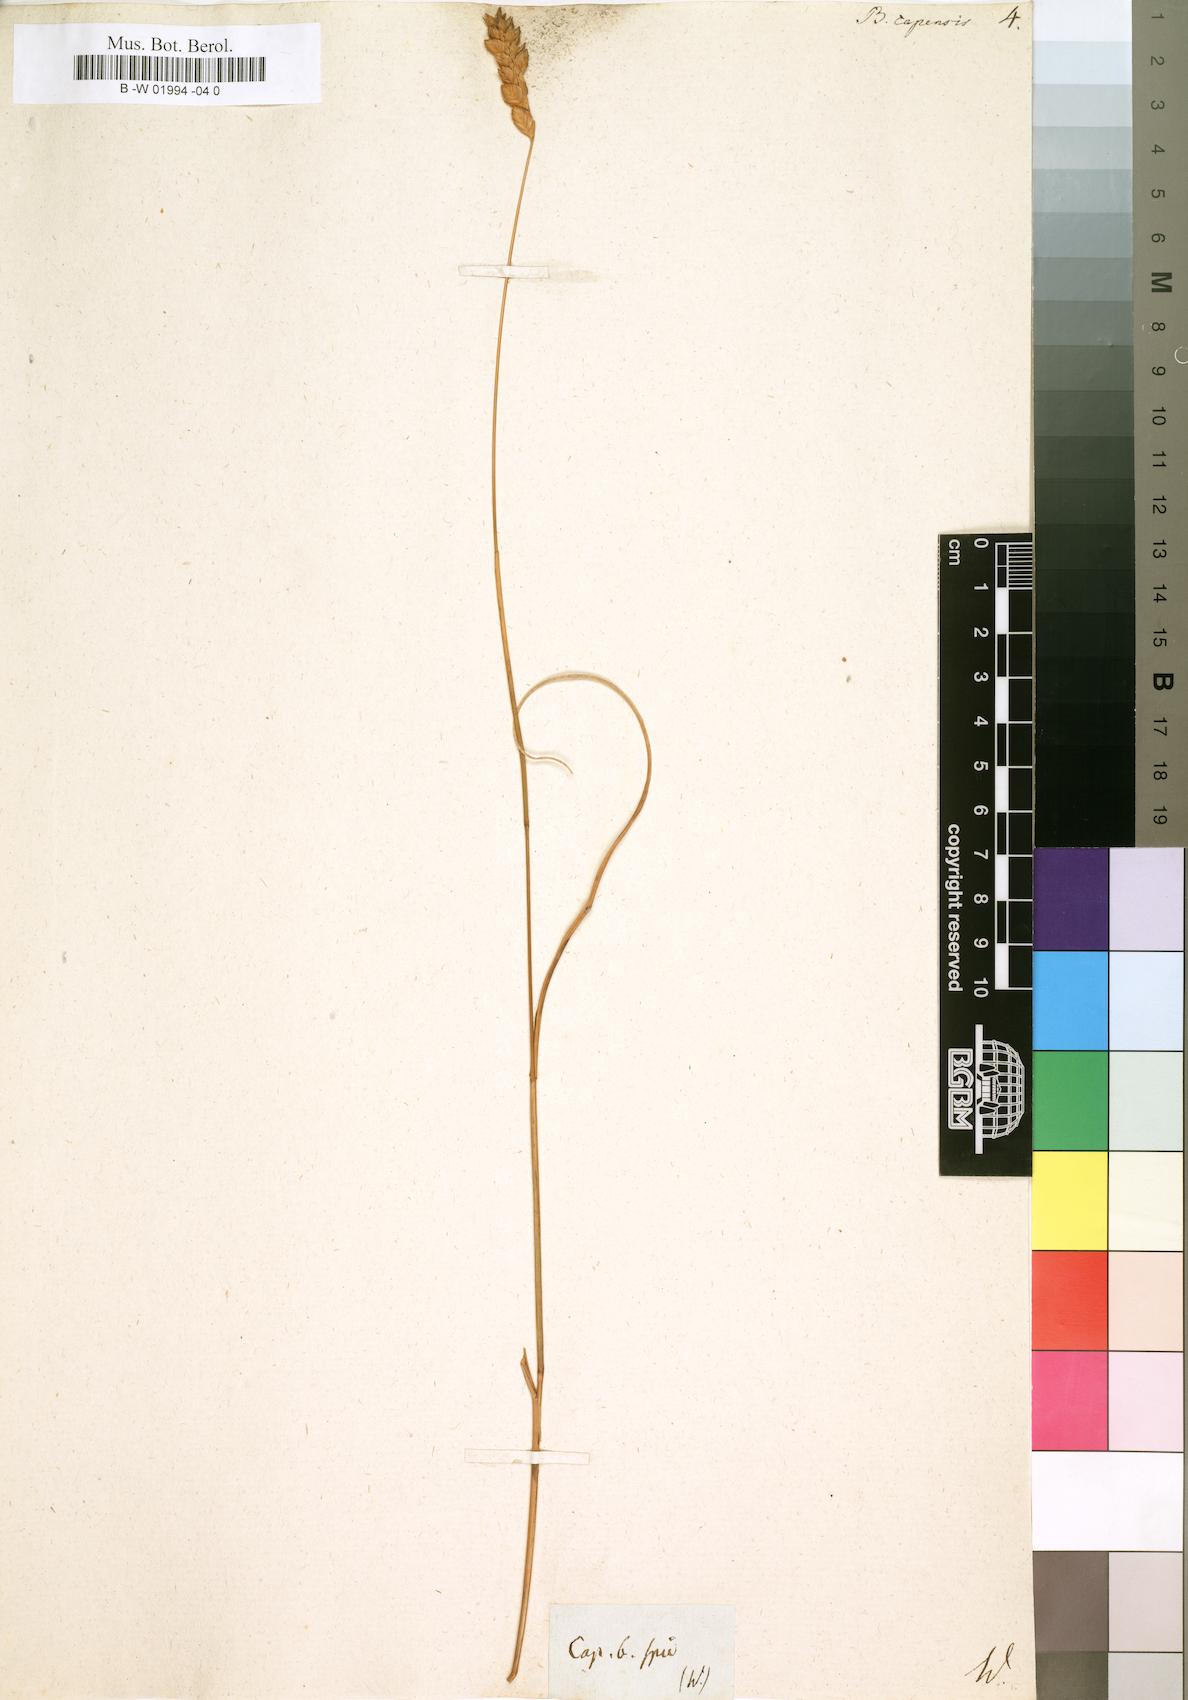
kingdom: Plantae
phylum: Tracheophyta
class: Liliopsida
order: Poales
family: Poaceae
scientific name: Poaceae
